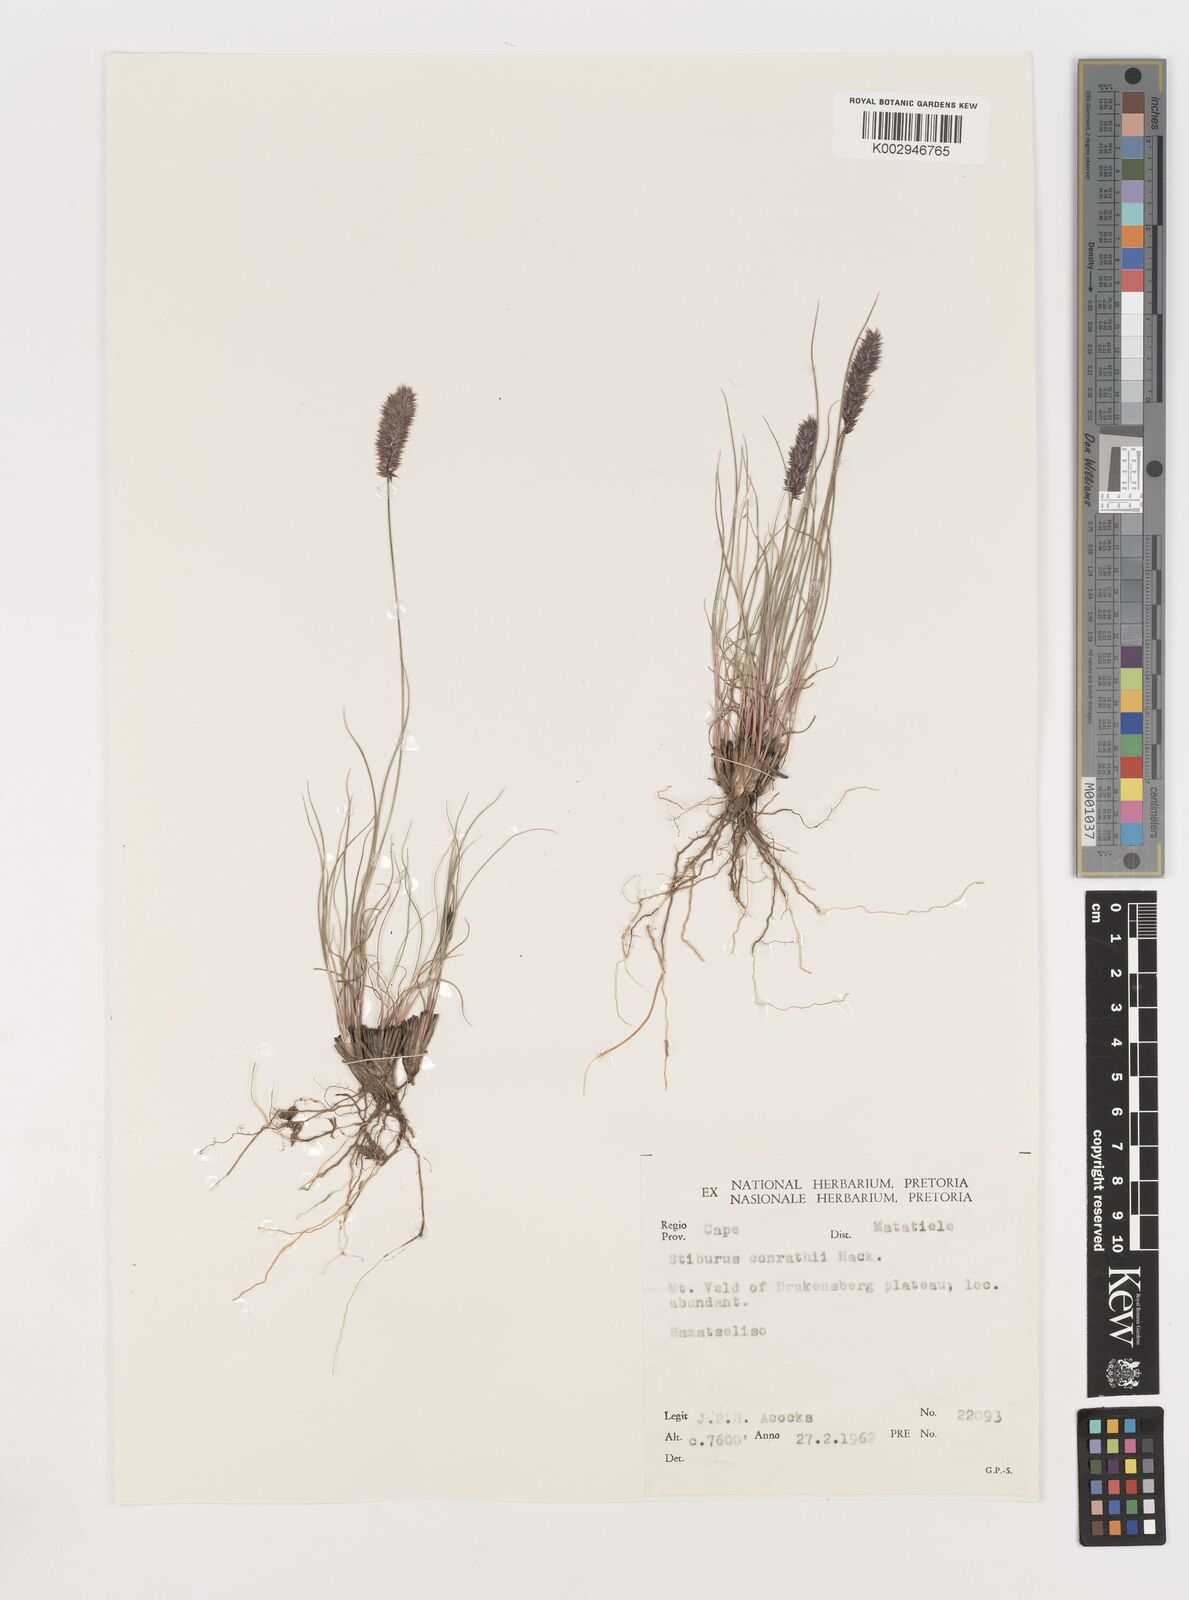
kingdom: Plantae
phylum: Tracheophyta
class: Liliopsida
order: Poales
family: Poaceae
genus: Stiburus
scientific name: Stiburus conrathii
